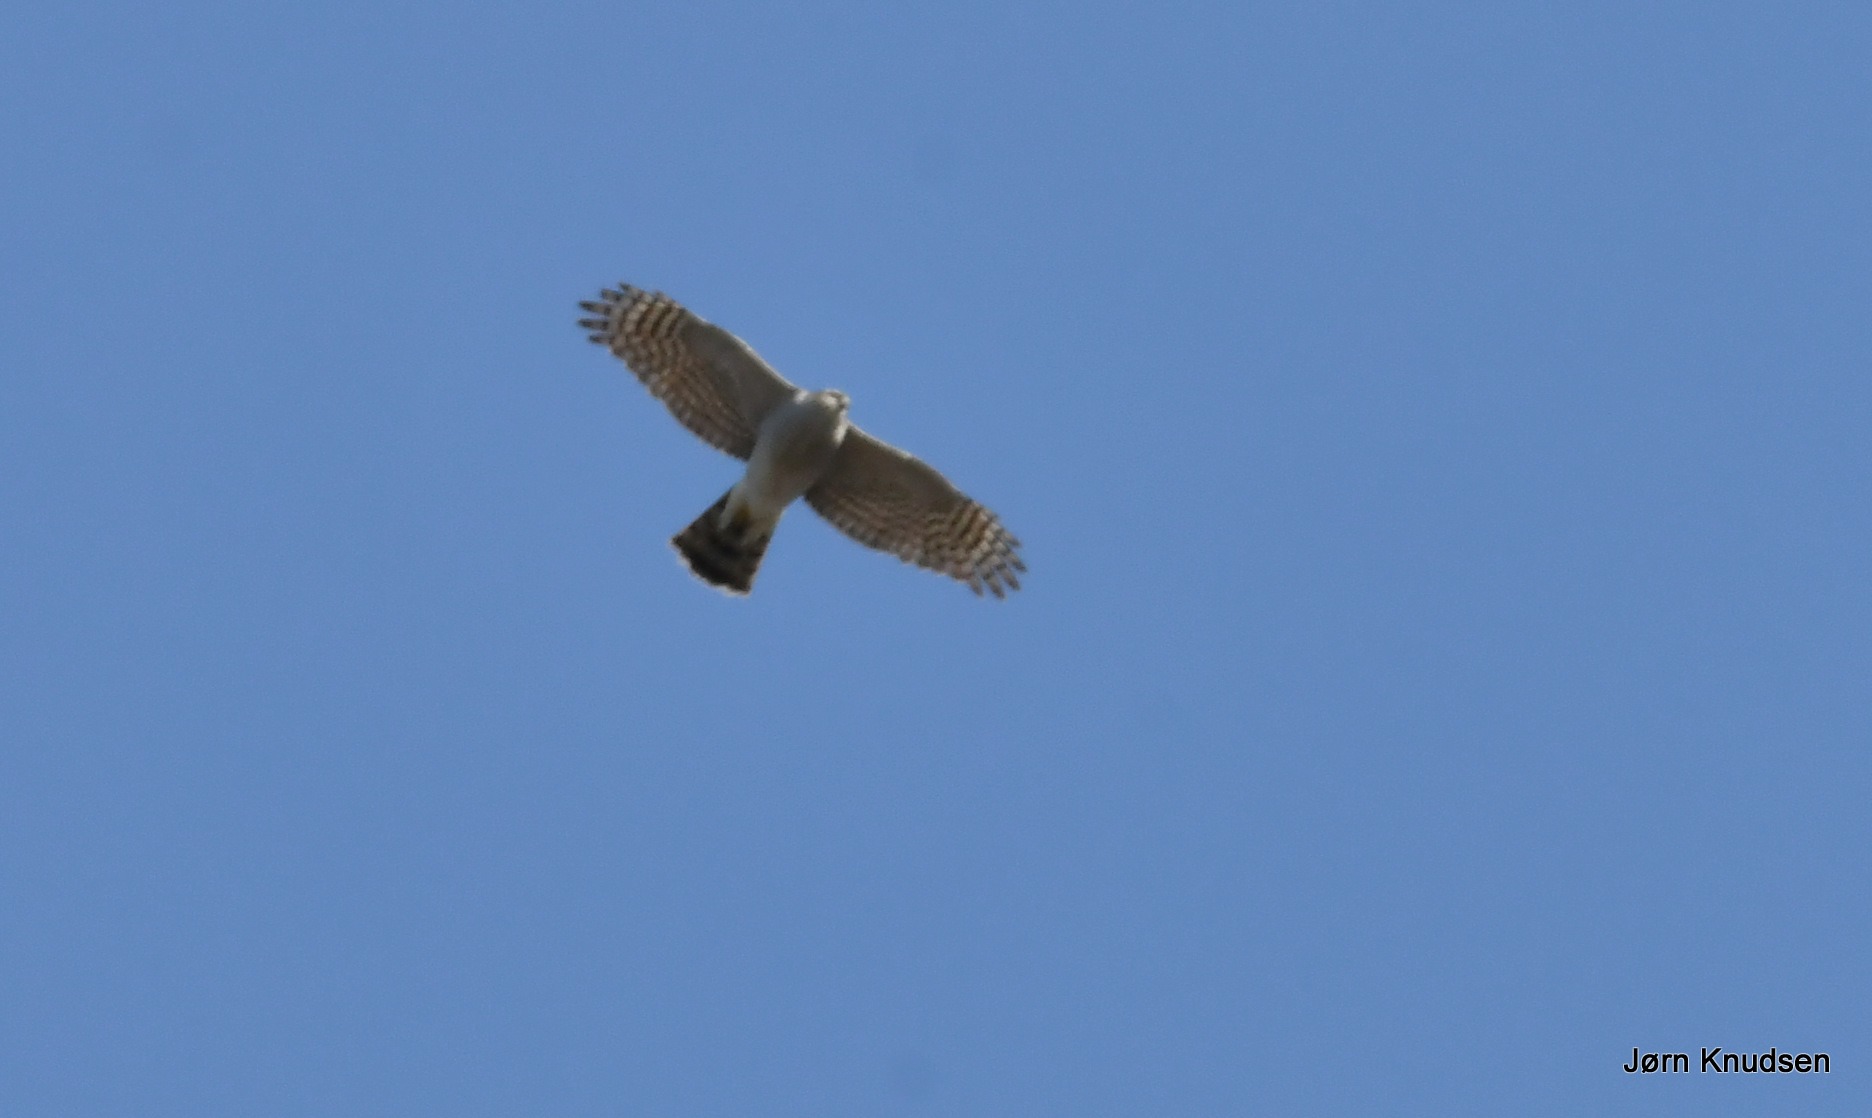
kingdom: Animalia
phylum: Chordata
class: Aves
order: Accipitriformes
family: Accipitridae
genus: Accipiter
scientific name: Accipiter nisus
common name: Spurvehøg
